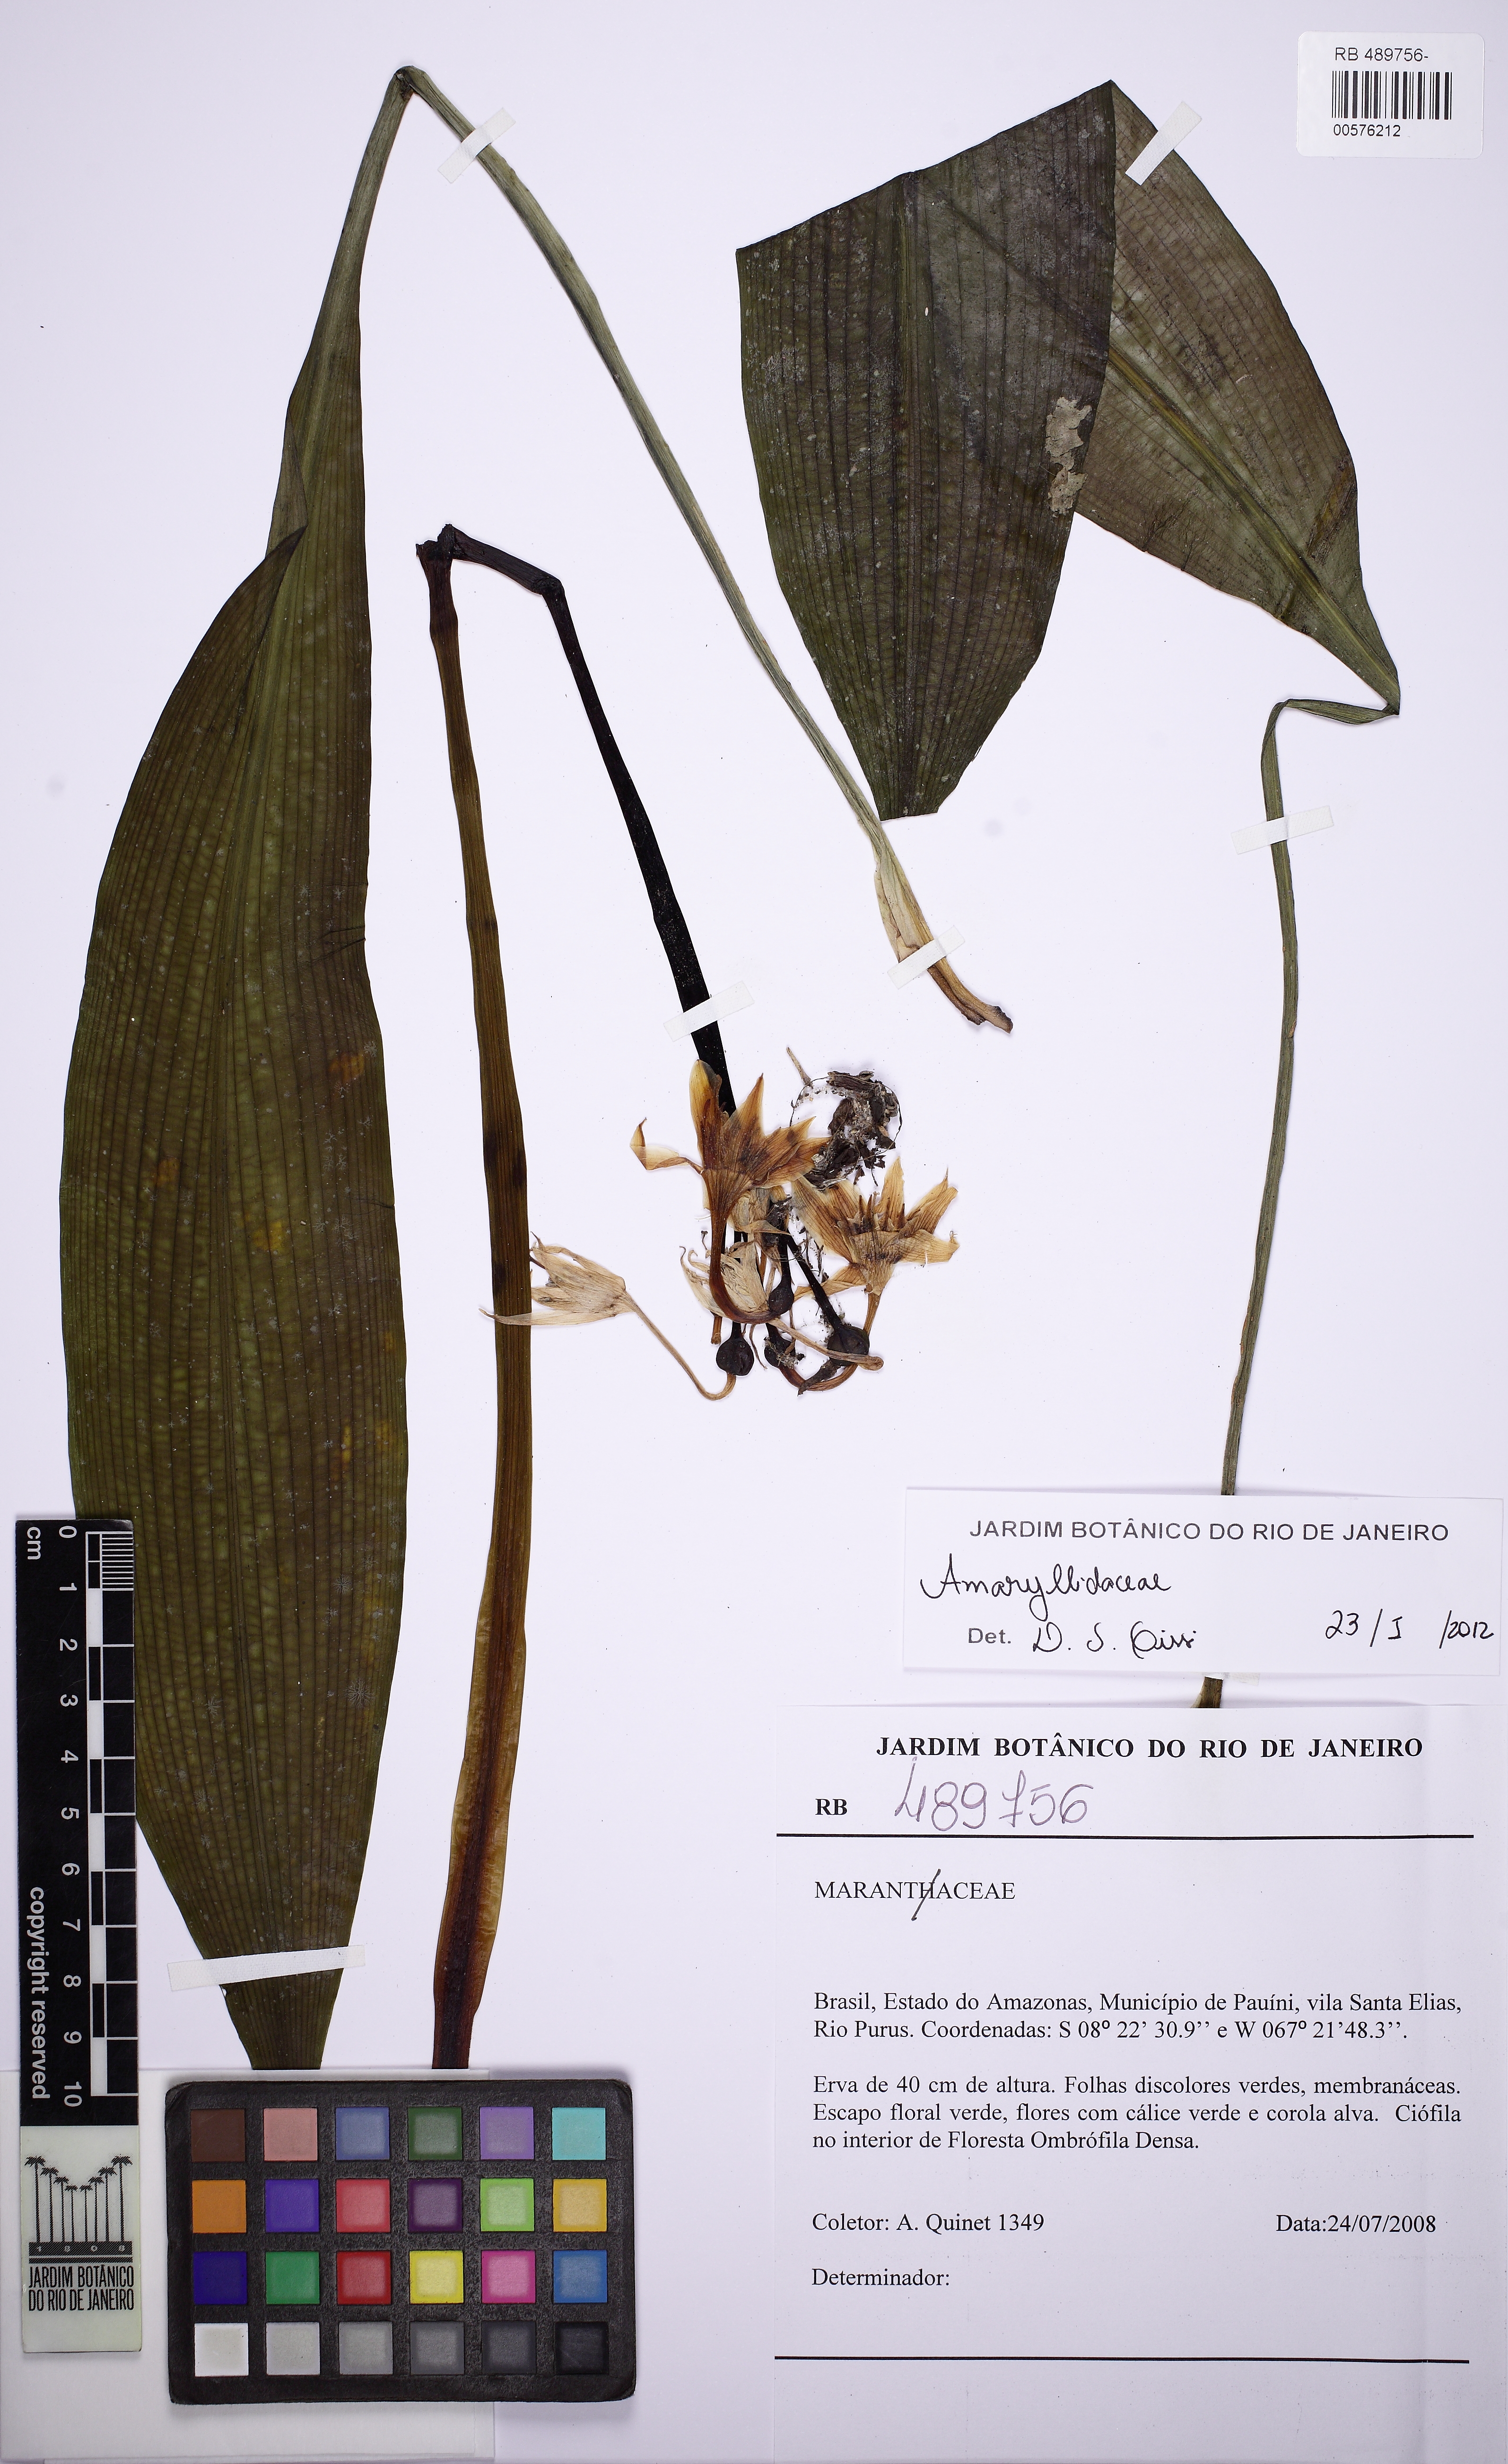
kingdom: Plantae
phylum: Tracheophyta
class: Liliopsida
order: Asparagales
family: Amaryllidaceae
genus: Urceolina
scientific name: Urceolina amazonica
